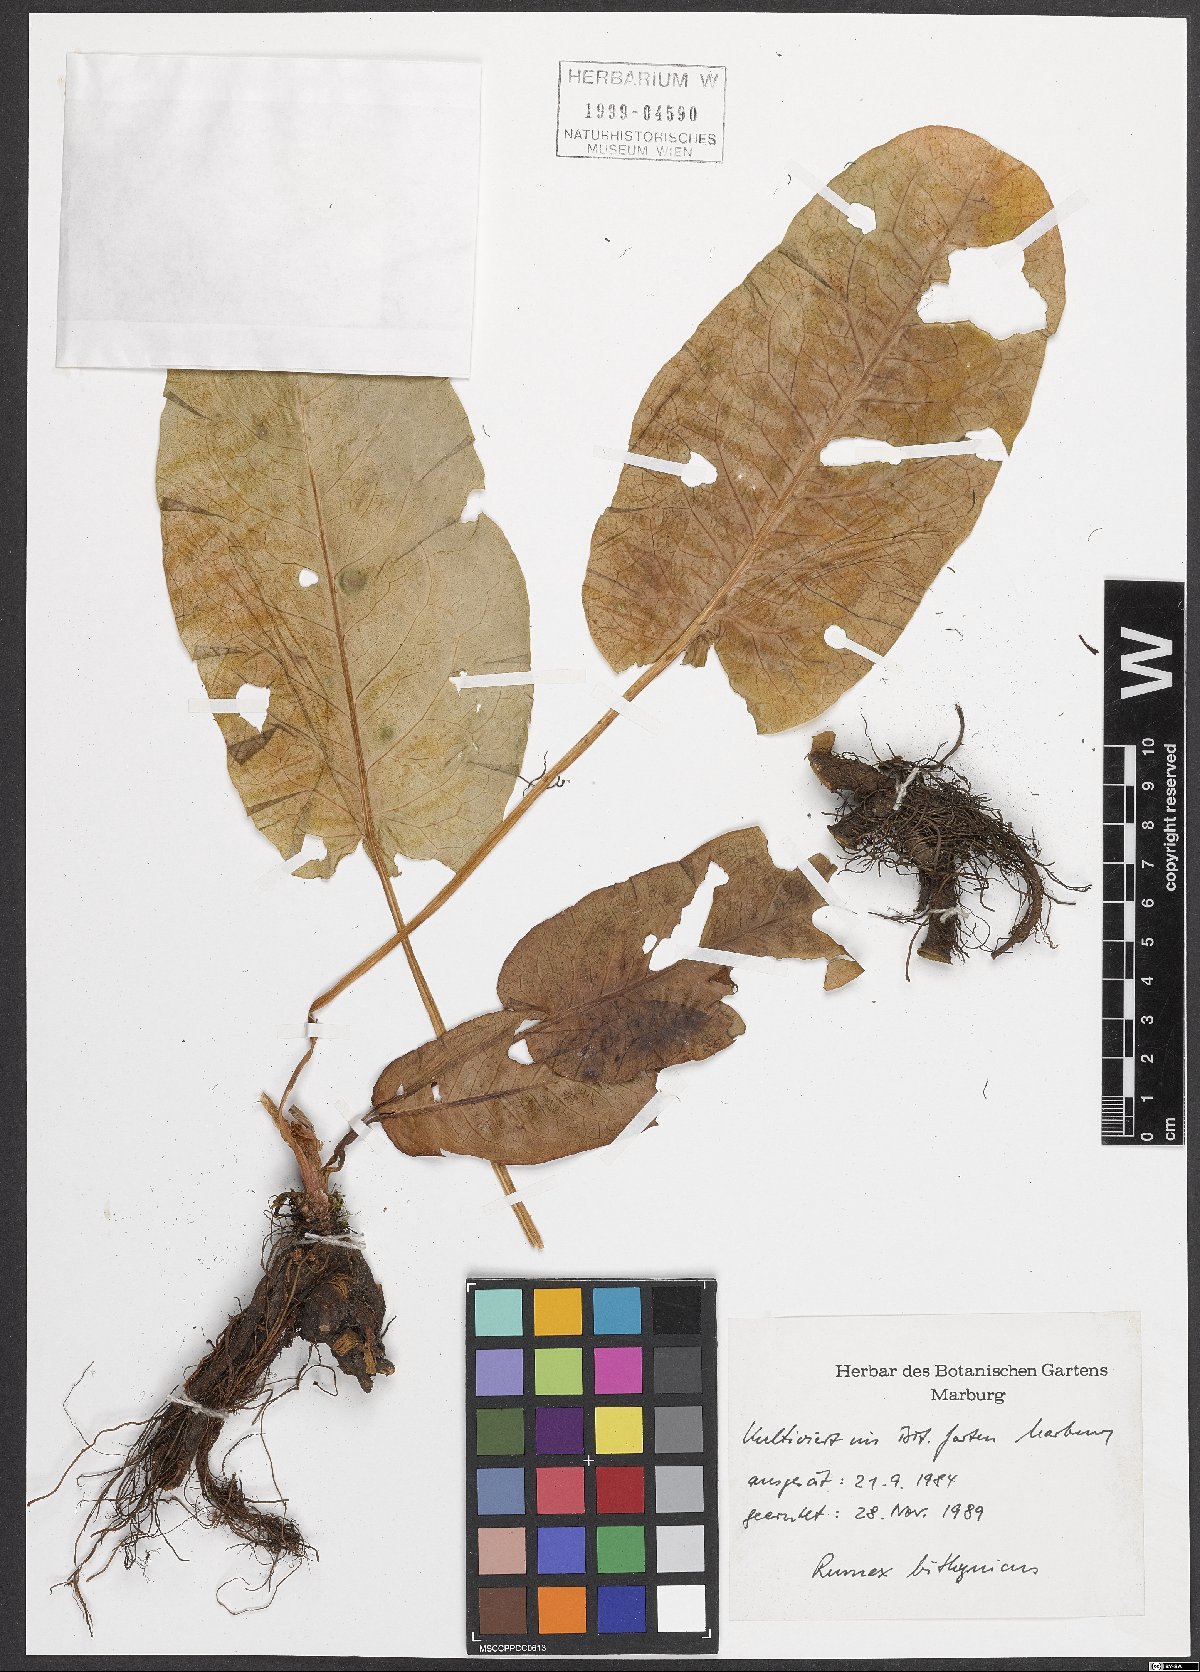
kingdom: Plantae
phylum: Tracheophyta
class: Magnoliopsida
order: Caryophyllales
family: Polygonaceae
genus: Rumex
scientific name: Rumex bithynicus
